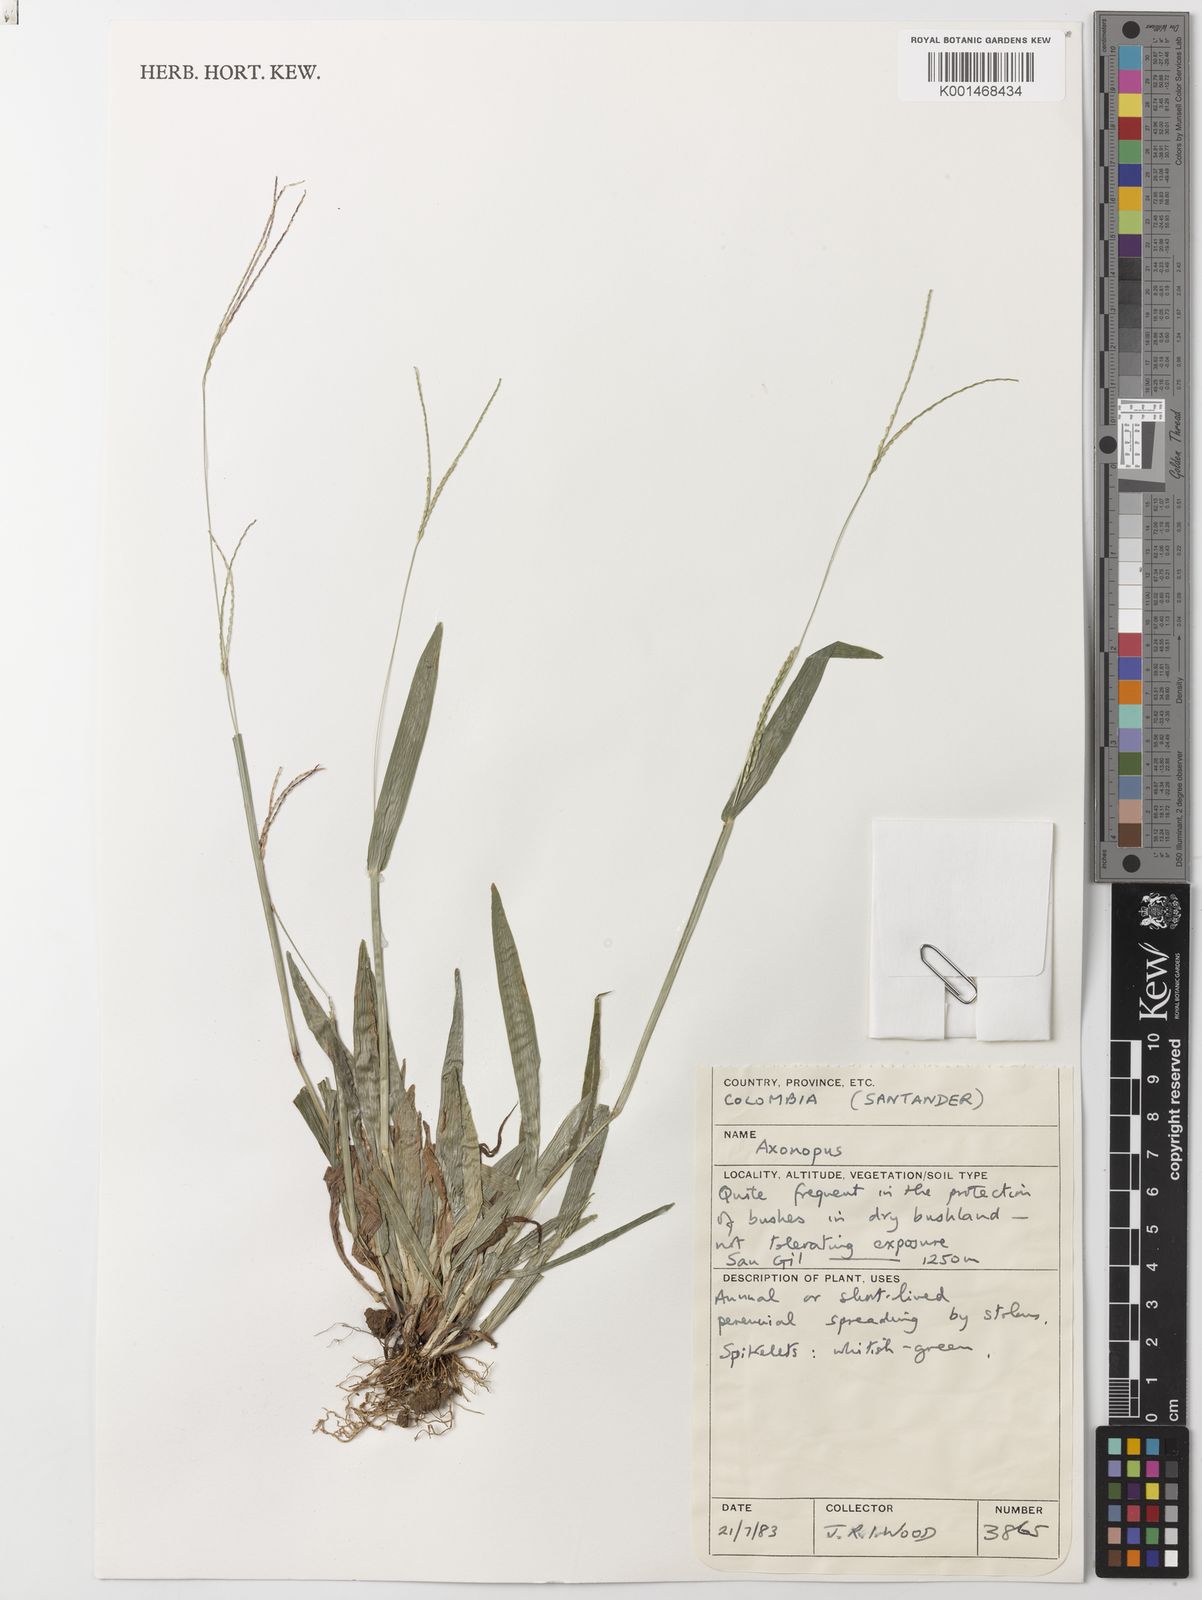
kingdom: Plantae
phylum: Tracheophyta
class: Liliopsida
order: Poales
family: Poaceae
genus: Axonopus
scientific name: Axonopus compressus
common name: American carpet grass
